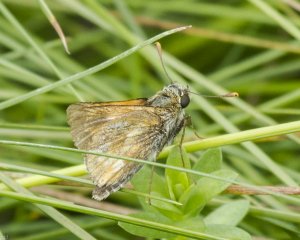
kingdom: Animalia
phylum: Arthropoda
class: Insecta
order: Lepidoptera
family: Hesperiidae
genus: Polites
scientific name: Polites
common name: Long Dash Skipper
